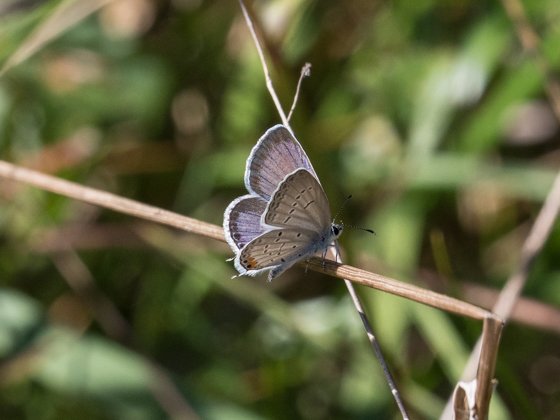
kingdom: Animalia
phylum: Arthropoda
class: Insecta
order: Lepidoptera
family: Lycaenidae
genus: Elkalyce
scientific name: Elkalyce comyntas
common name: Eastern Tailed-Blue
